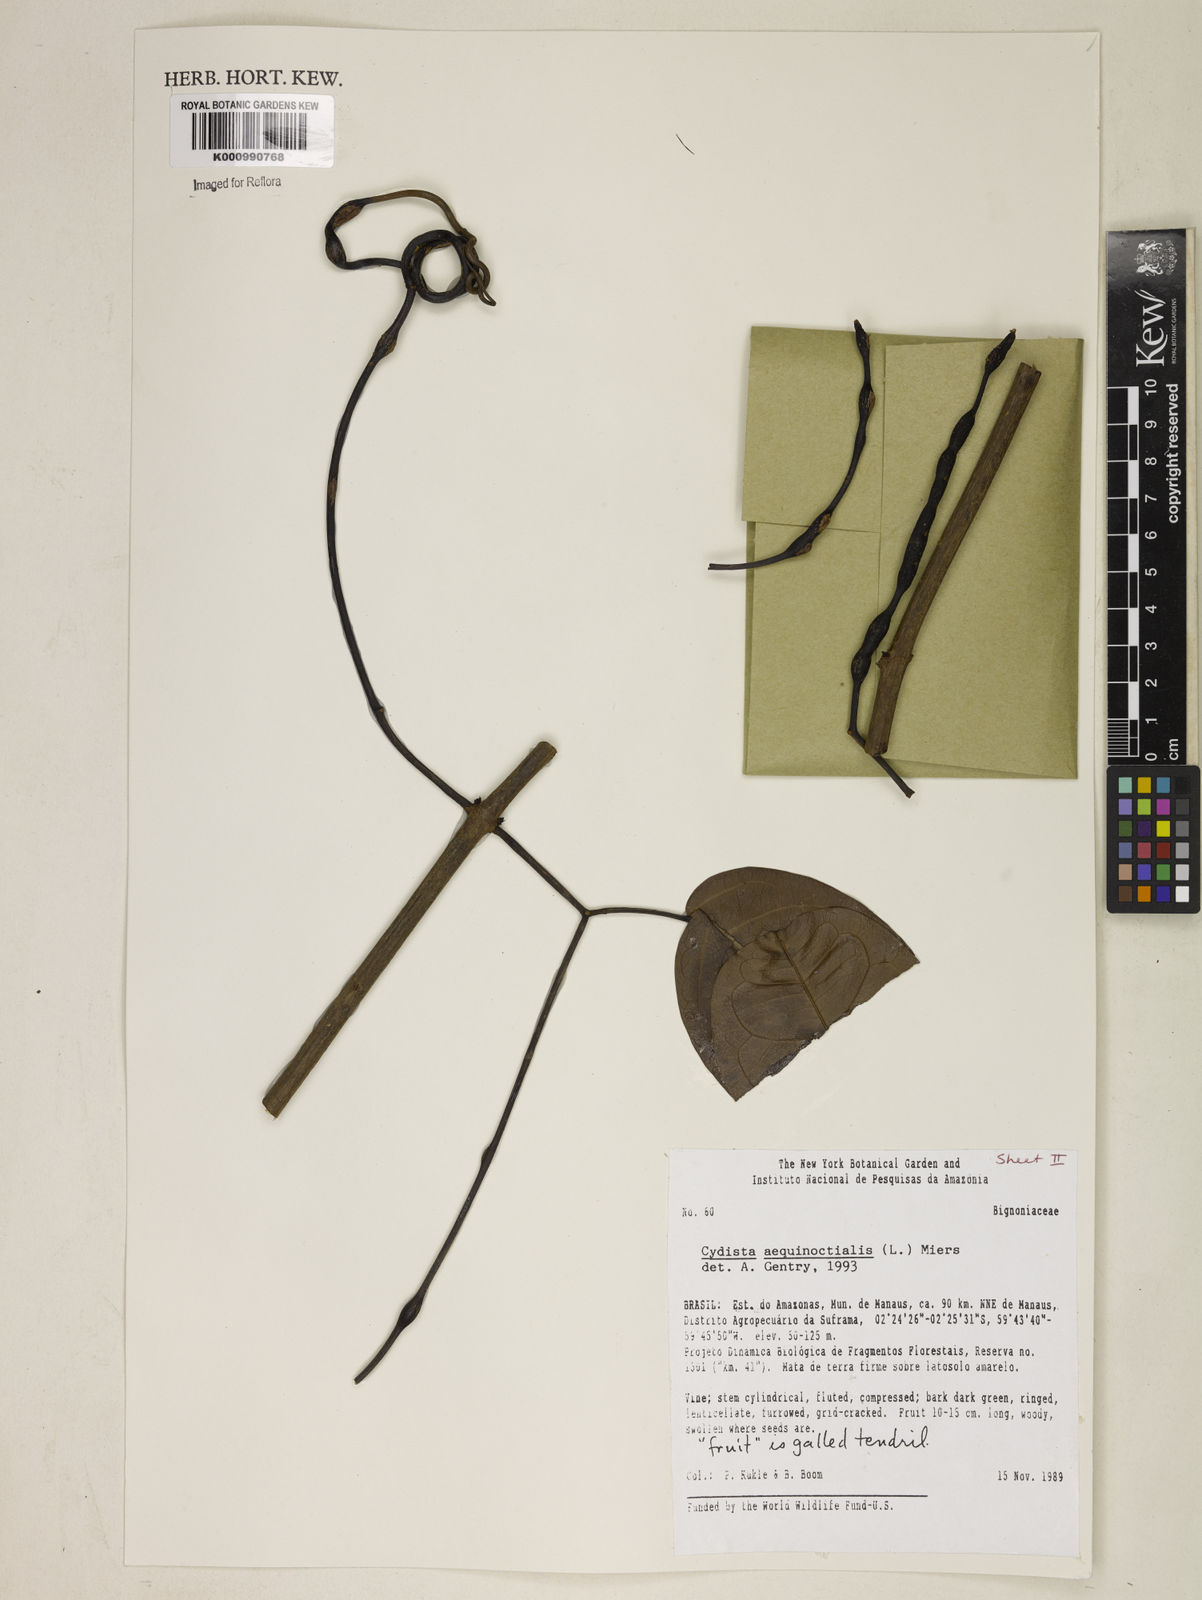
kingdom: Plantae
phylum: Tracheophyta
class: Magnoliopsida
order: Lamiales
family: Bignoniaceae
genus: Bignonia
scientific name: Bignonia aequinoctialis
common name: Garlicvine
